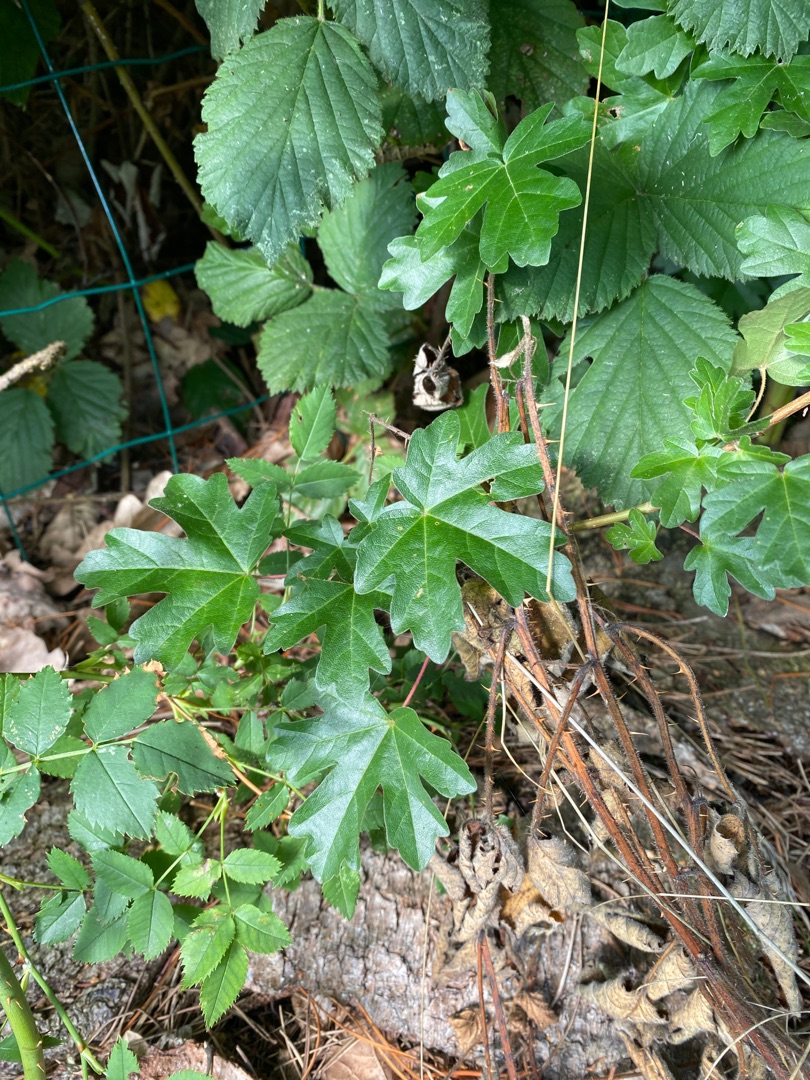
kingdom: Plantae
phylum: Tracheophyta
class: Magnoliopsida
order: Sapindales
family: Sapindaceae
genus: Acer
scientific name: Acer campestre
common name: Navr
